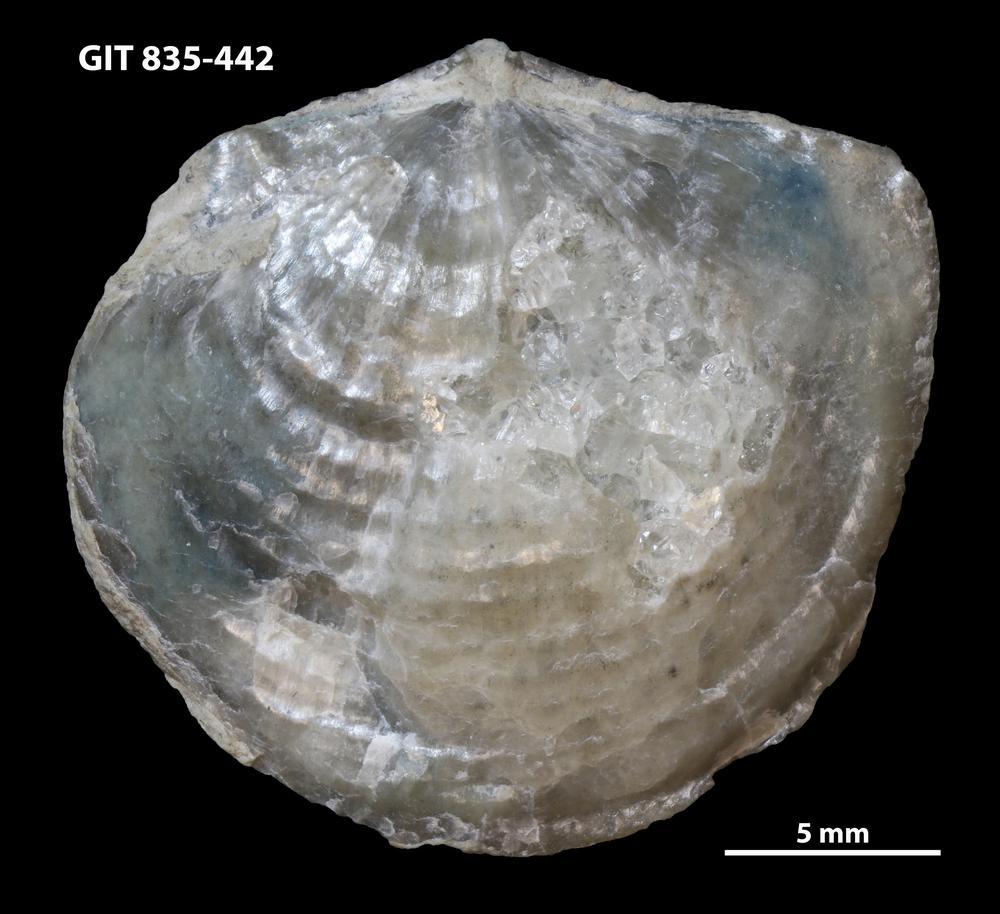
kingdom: Animalia
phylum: Brachiopoda
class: Rhynchonellata
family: Atrypidae
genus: Protatrypa
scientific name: Protatrypa malmoeyensis
